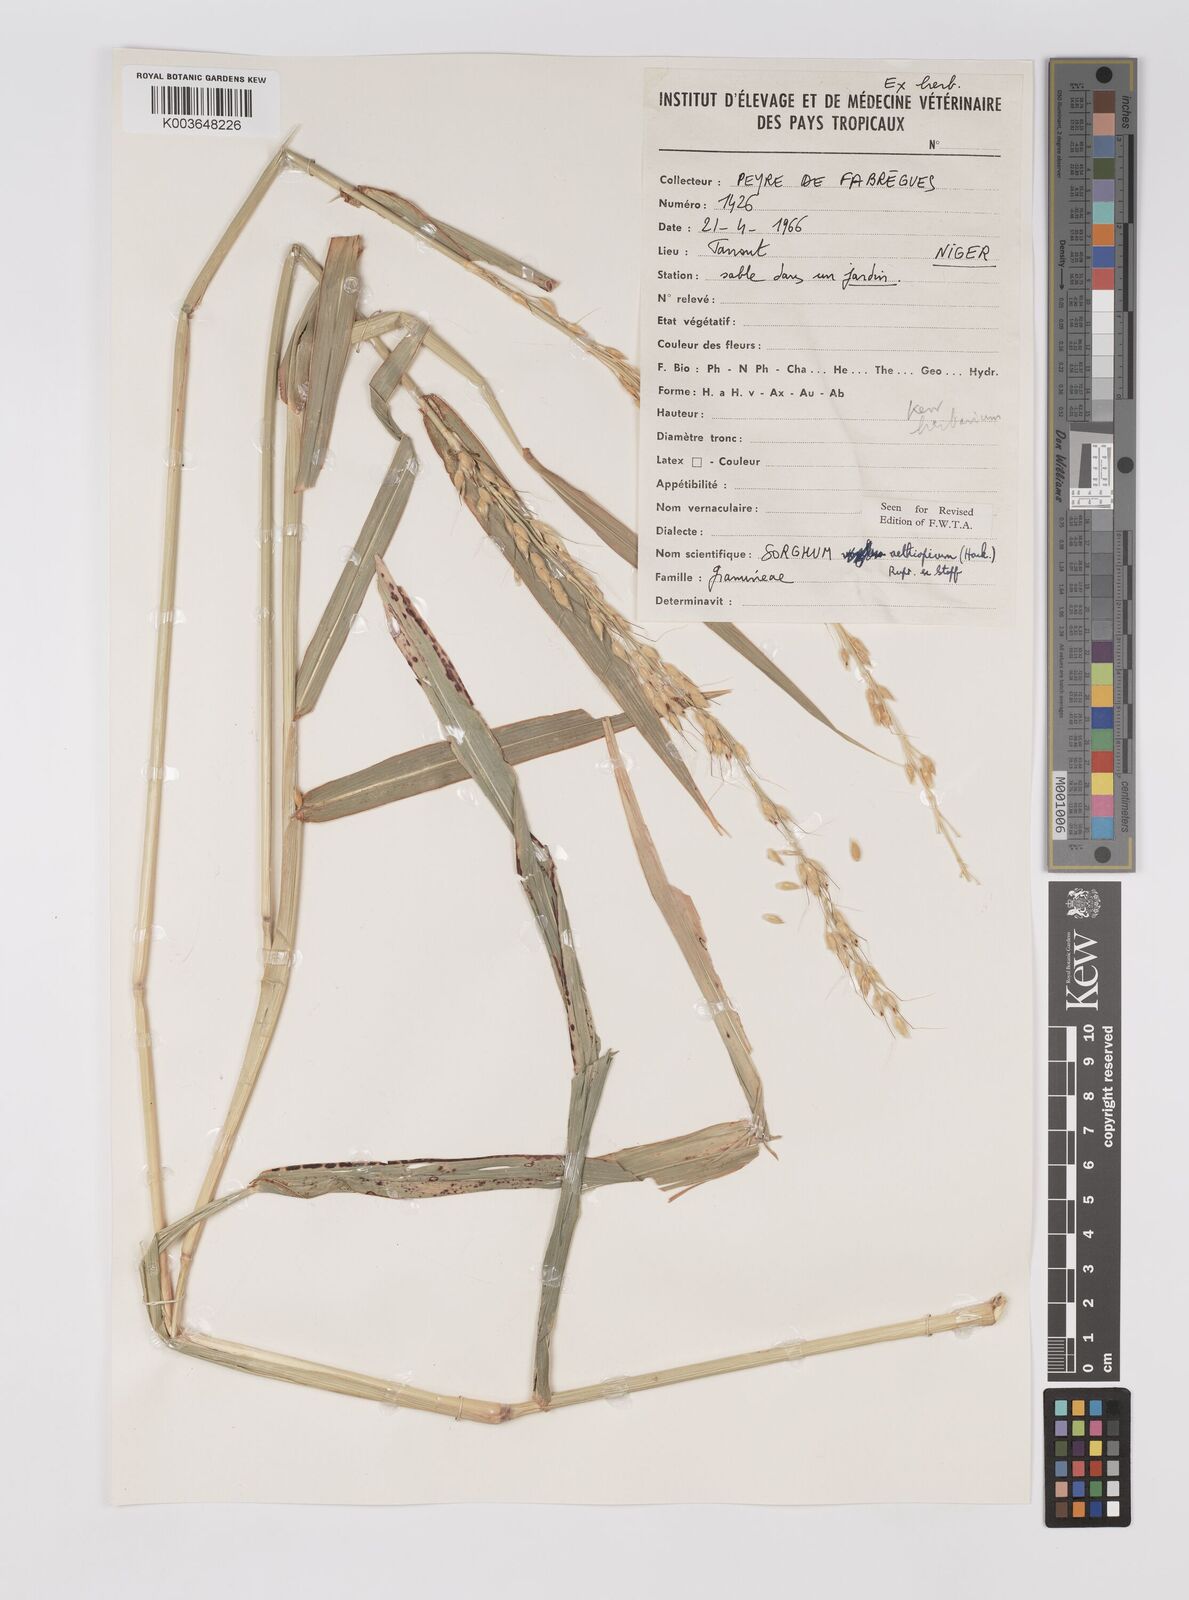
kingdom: Plantae
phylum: Tracheophyta
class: Liliopsida
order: Poales
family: Poaceae
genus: Sorghum
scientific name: Sorghum arundinaceum
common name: Sorghum
